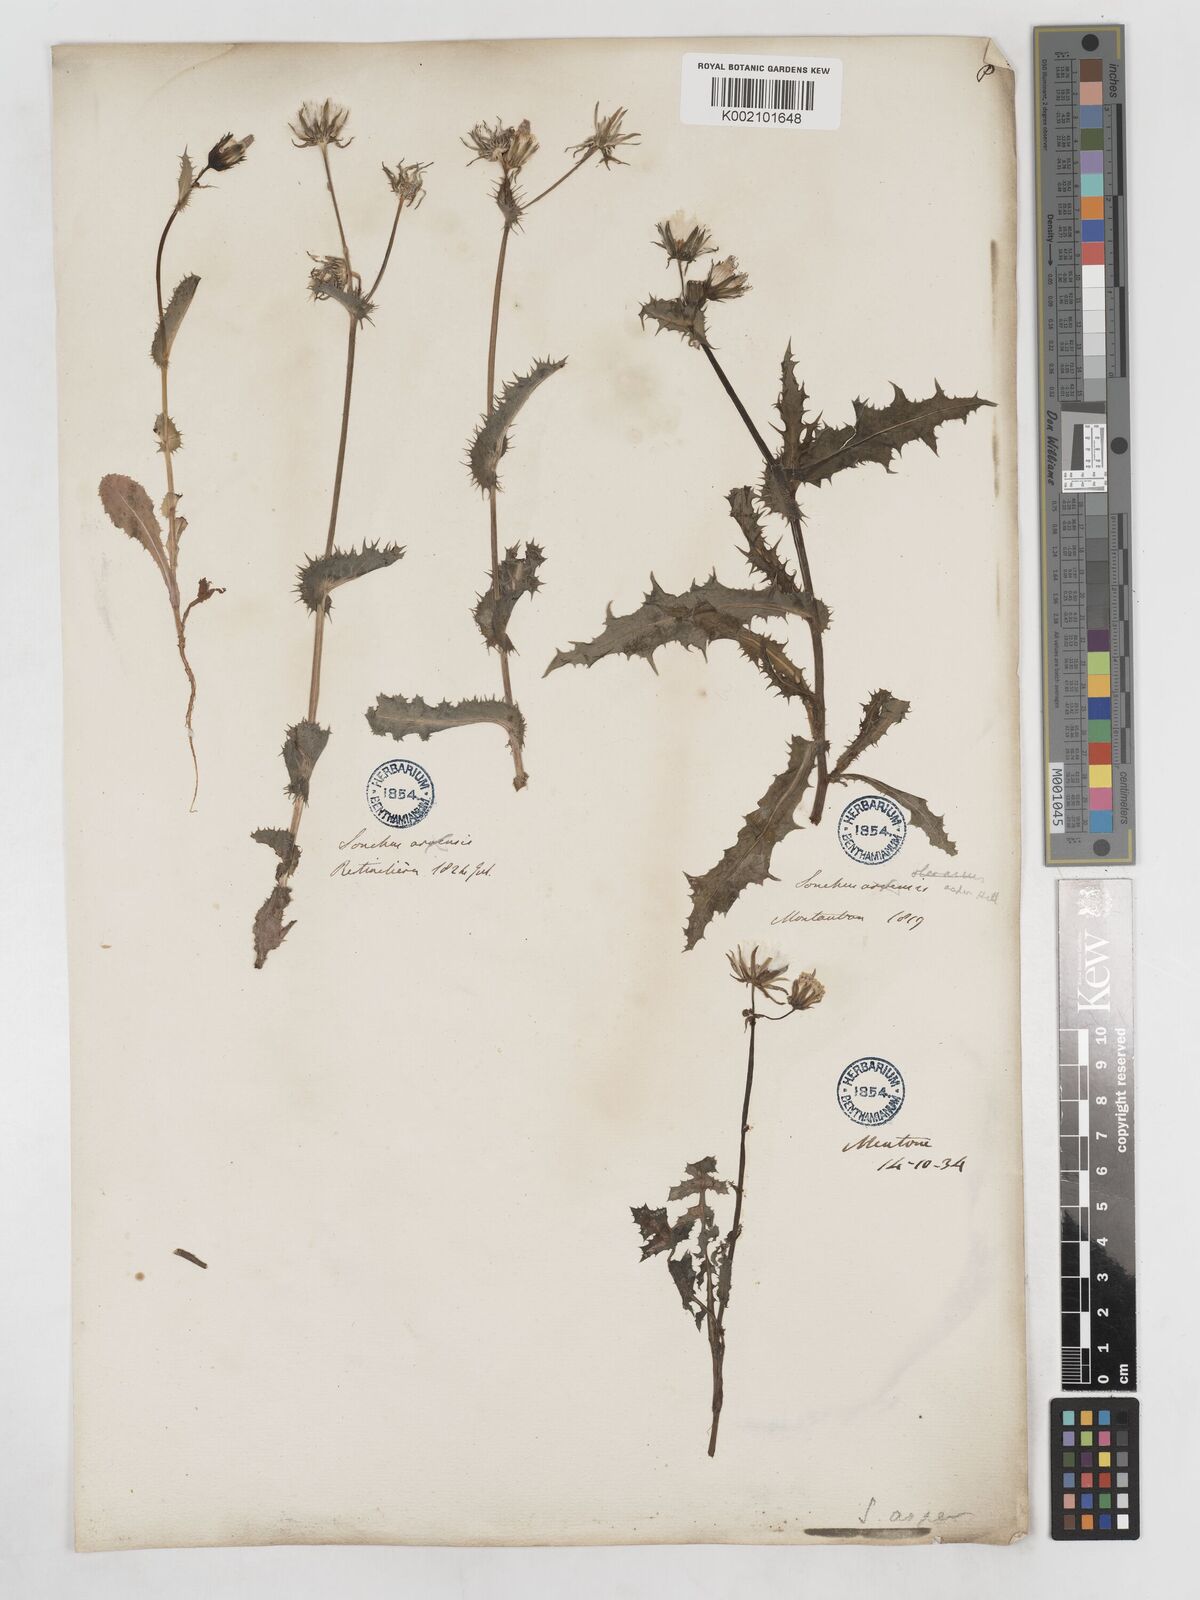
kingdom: Plantae
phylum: Tracheophyta
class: Magnoliopsida
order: Asterales
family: Asteraceae
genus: Sonchus
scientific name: Sonchus arvensis
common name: Perennial sow-thistle
